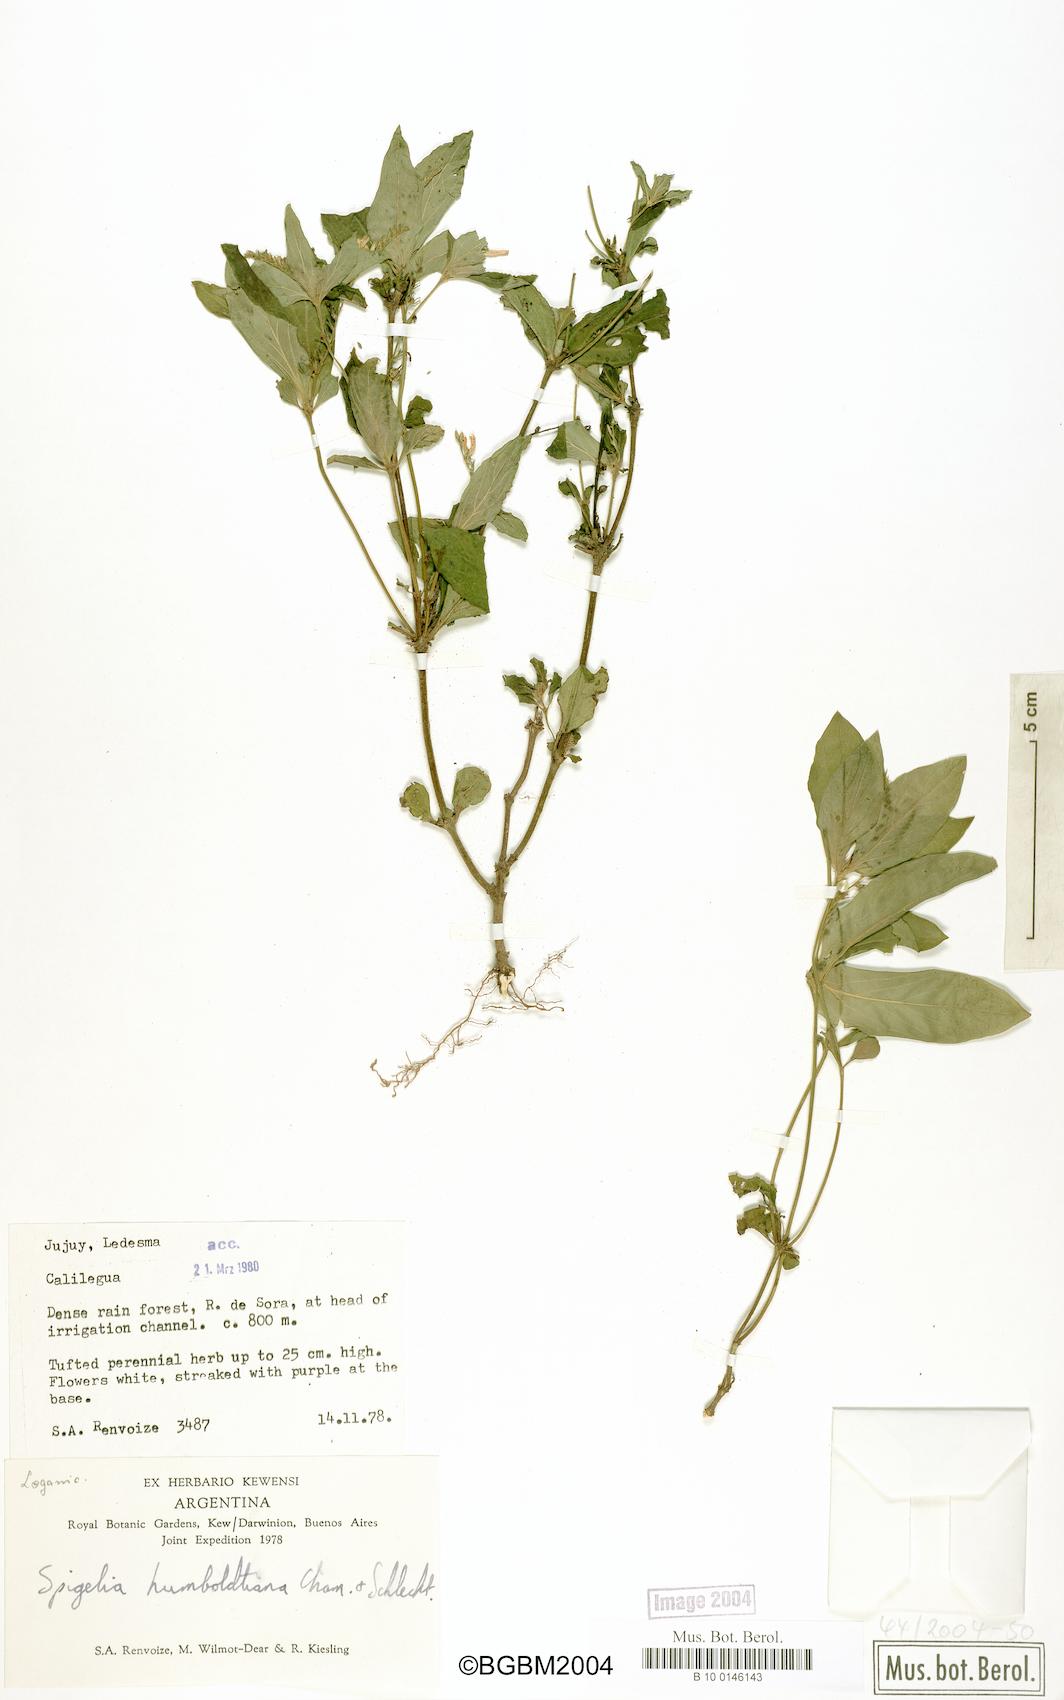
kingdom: Plantae
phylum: Tracheophyta
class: Magnoliopsida
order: Gentianales
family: Loganiaceae
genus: Spigelia
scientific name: Spigelia humboldtiana
